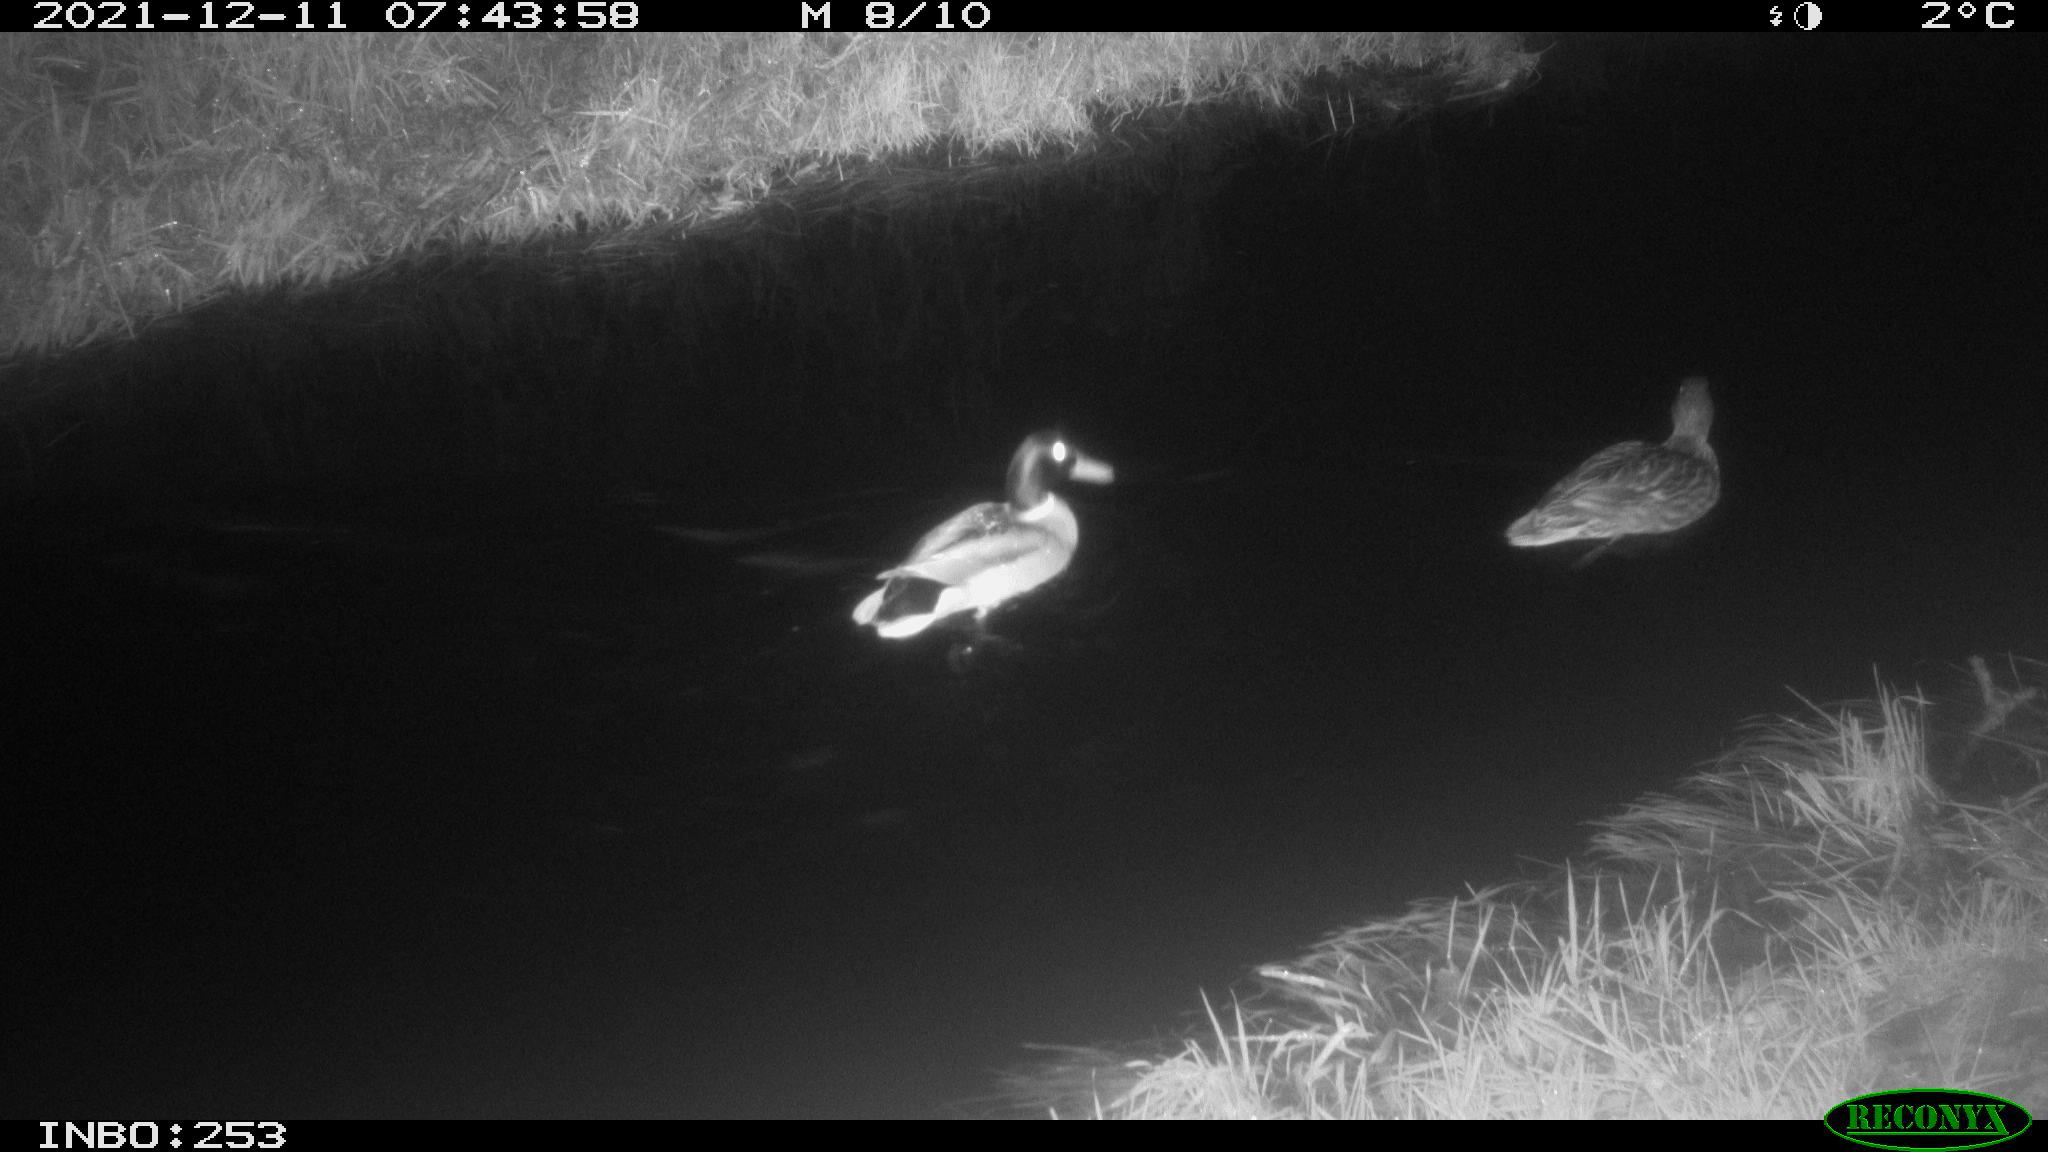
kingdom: Animalia
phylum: Chordata
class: Aves
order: Anseriformes
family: Anatidae
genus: Anas
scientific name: Anas
